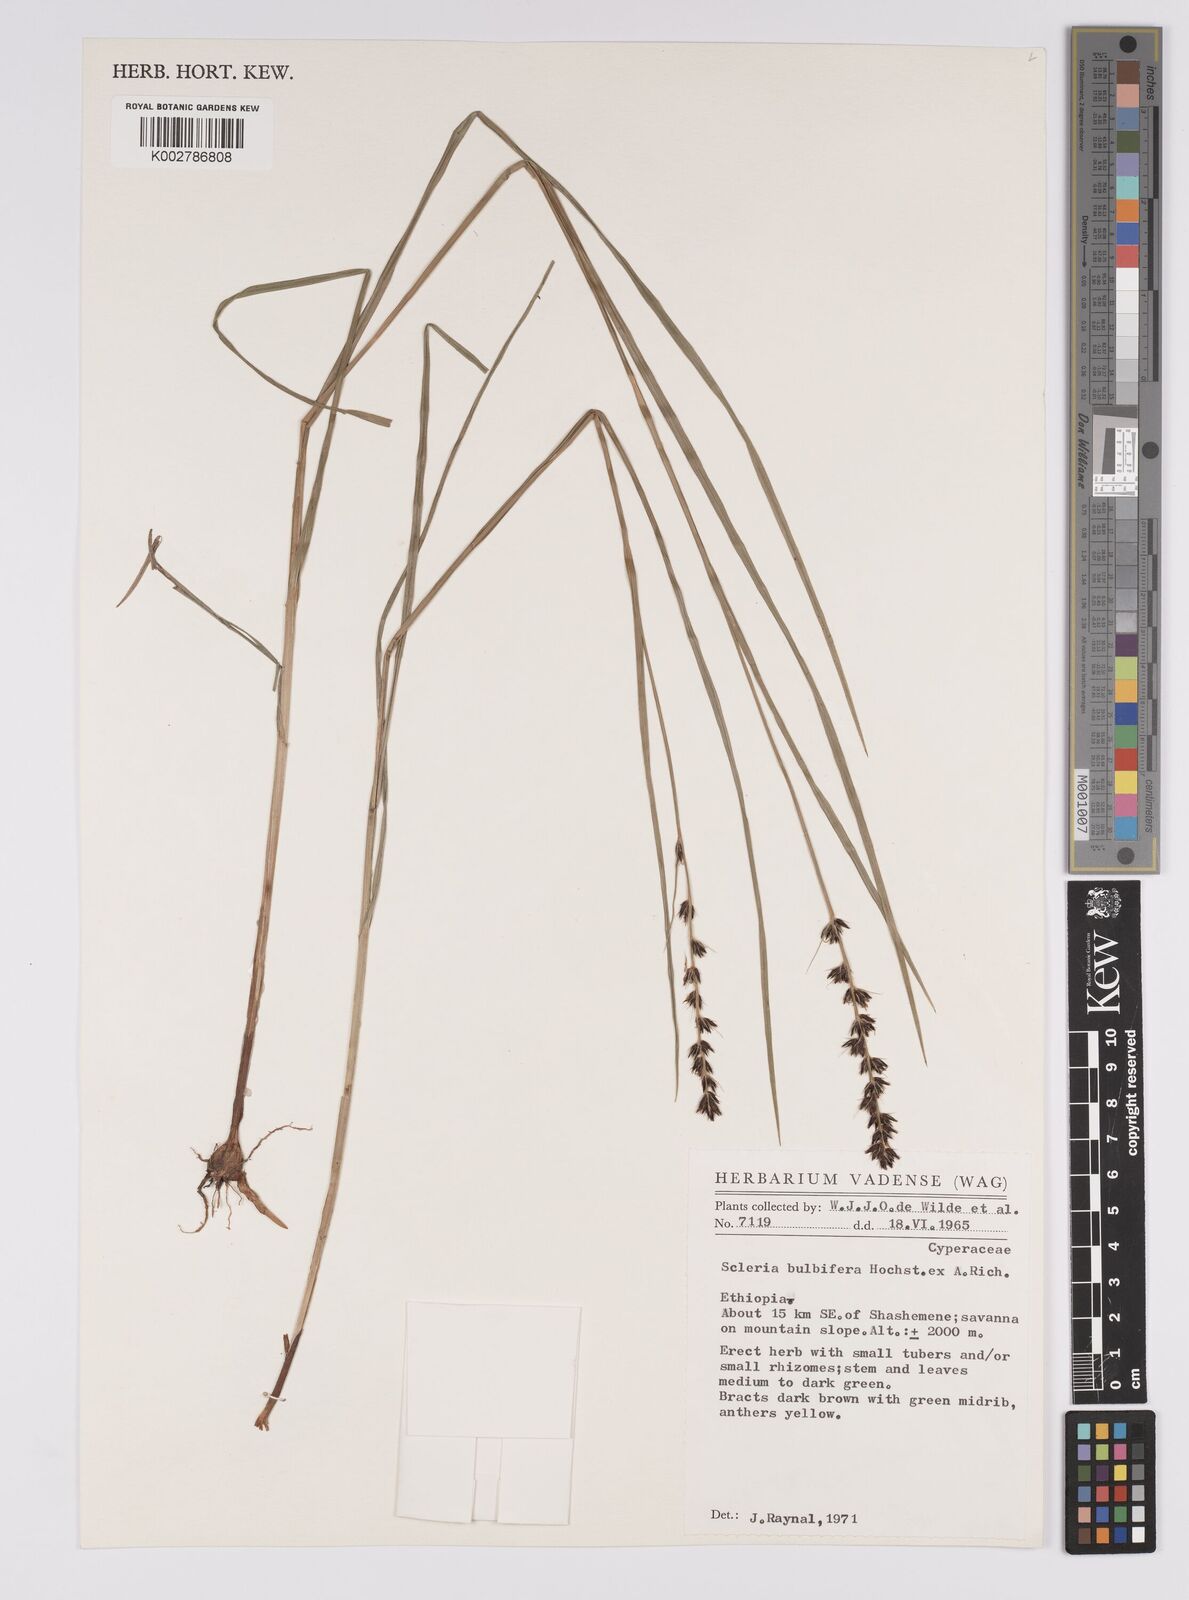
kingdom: Plantae
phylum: Tracheophyta
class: Liliopsida
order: Poales
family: Cyperaceae
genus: Scleria
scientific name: Scleria bulbifera
